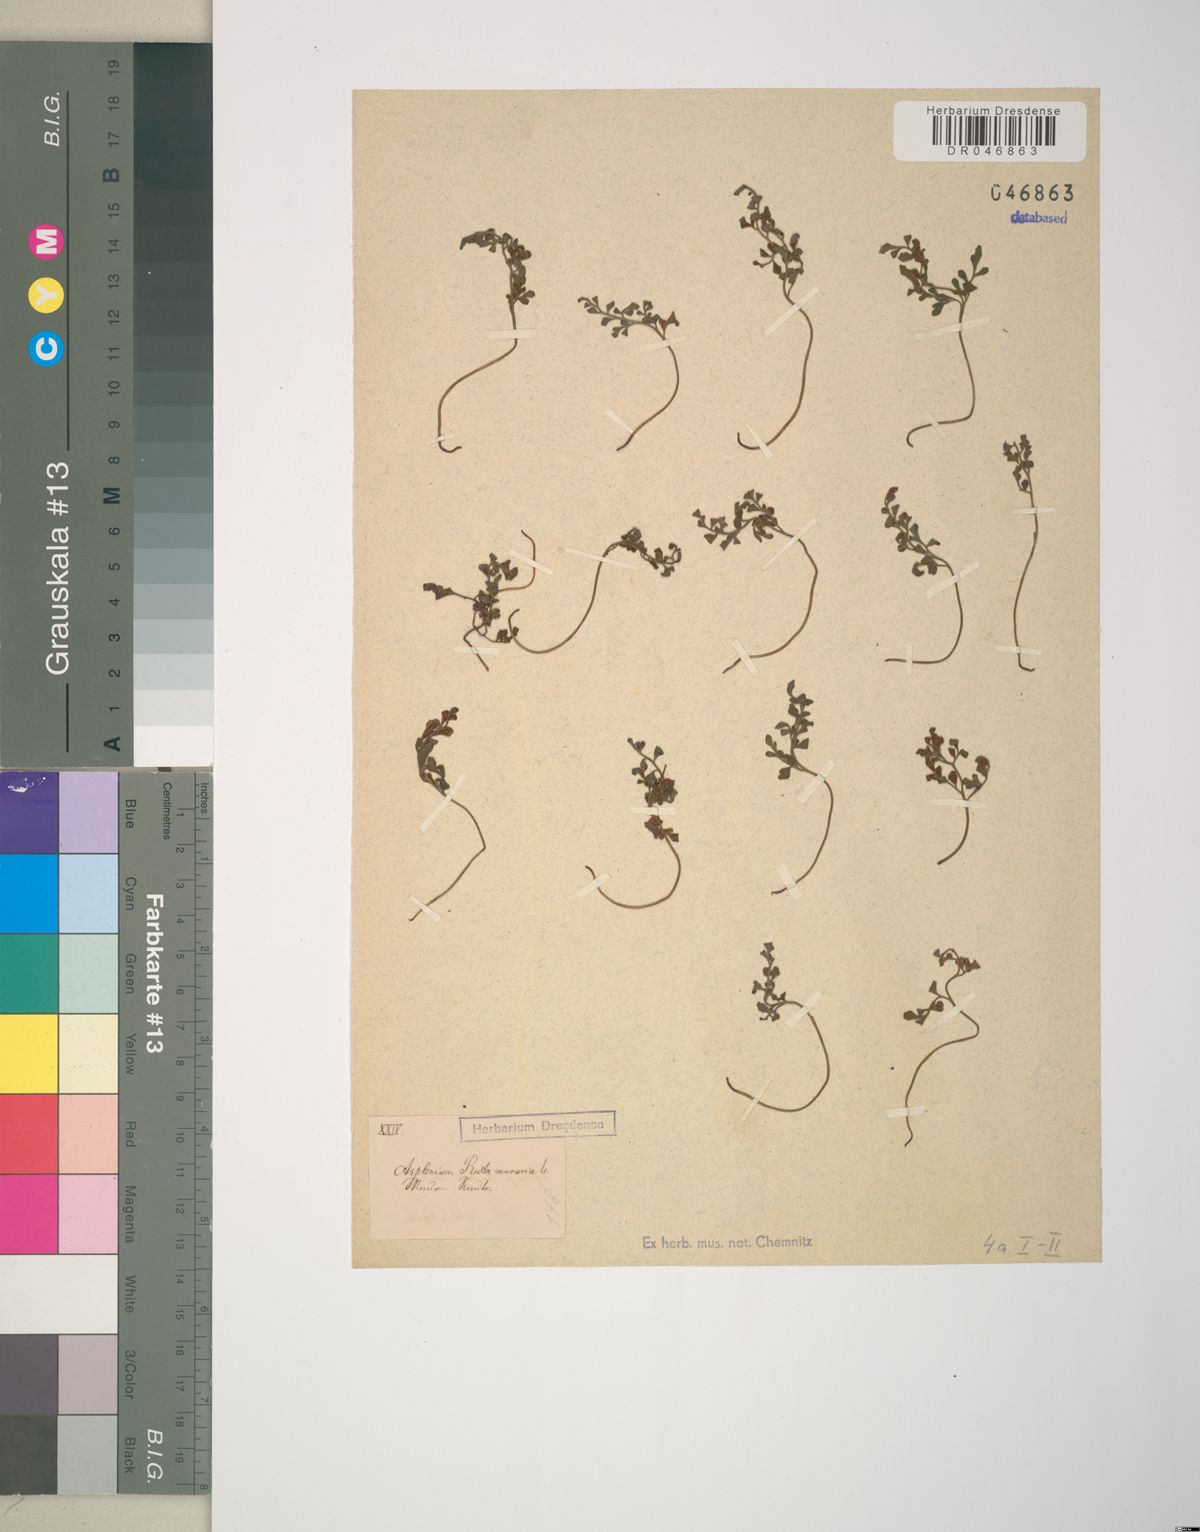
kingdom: Plantae
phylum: Tracheophyta
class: Polypodiopsida
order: Polypodiales
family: Aspleniaceae
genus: Asplenium
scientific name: Asplenium ruta-muraria
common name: Wall-rue
